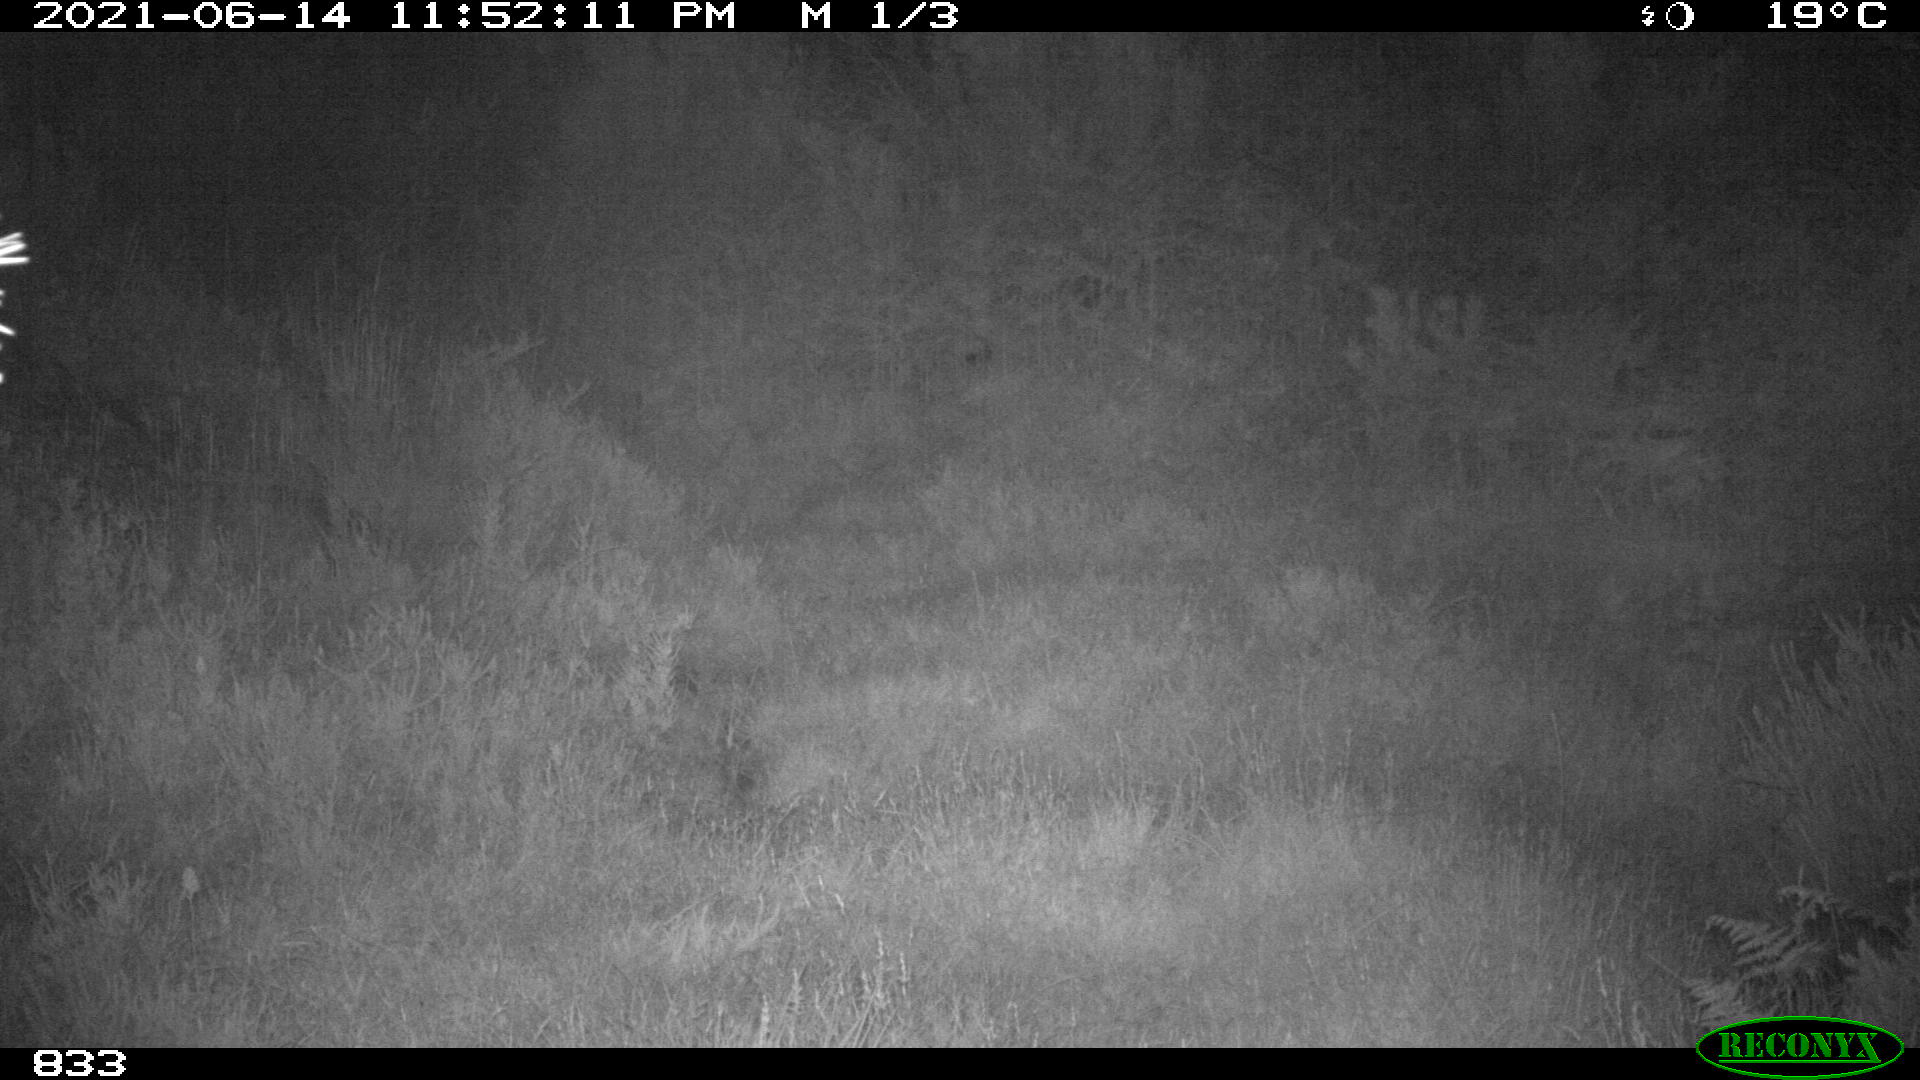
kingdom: Animalia
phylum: Chordata
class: Mammalia
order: Artiodactyla
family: Suidae
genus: Sus
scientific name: Sus scrofa
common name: Wild boar
